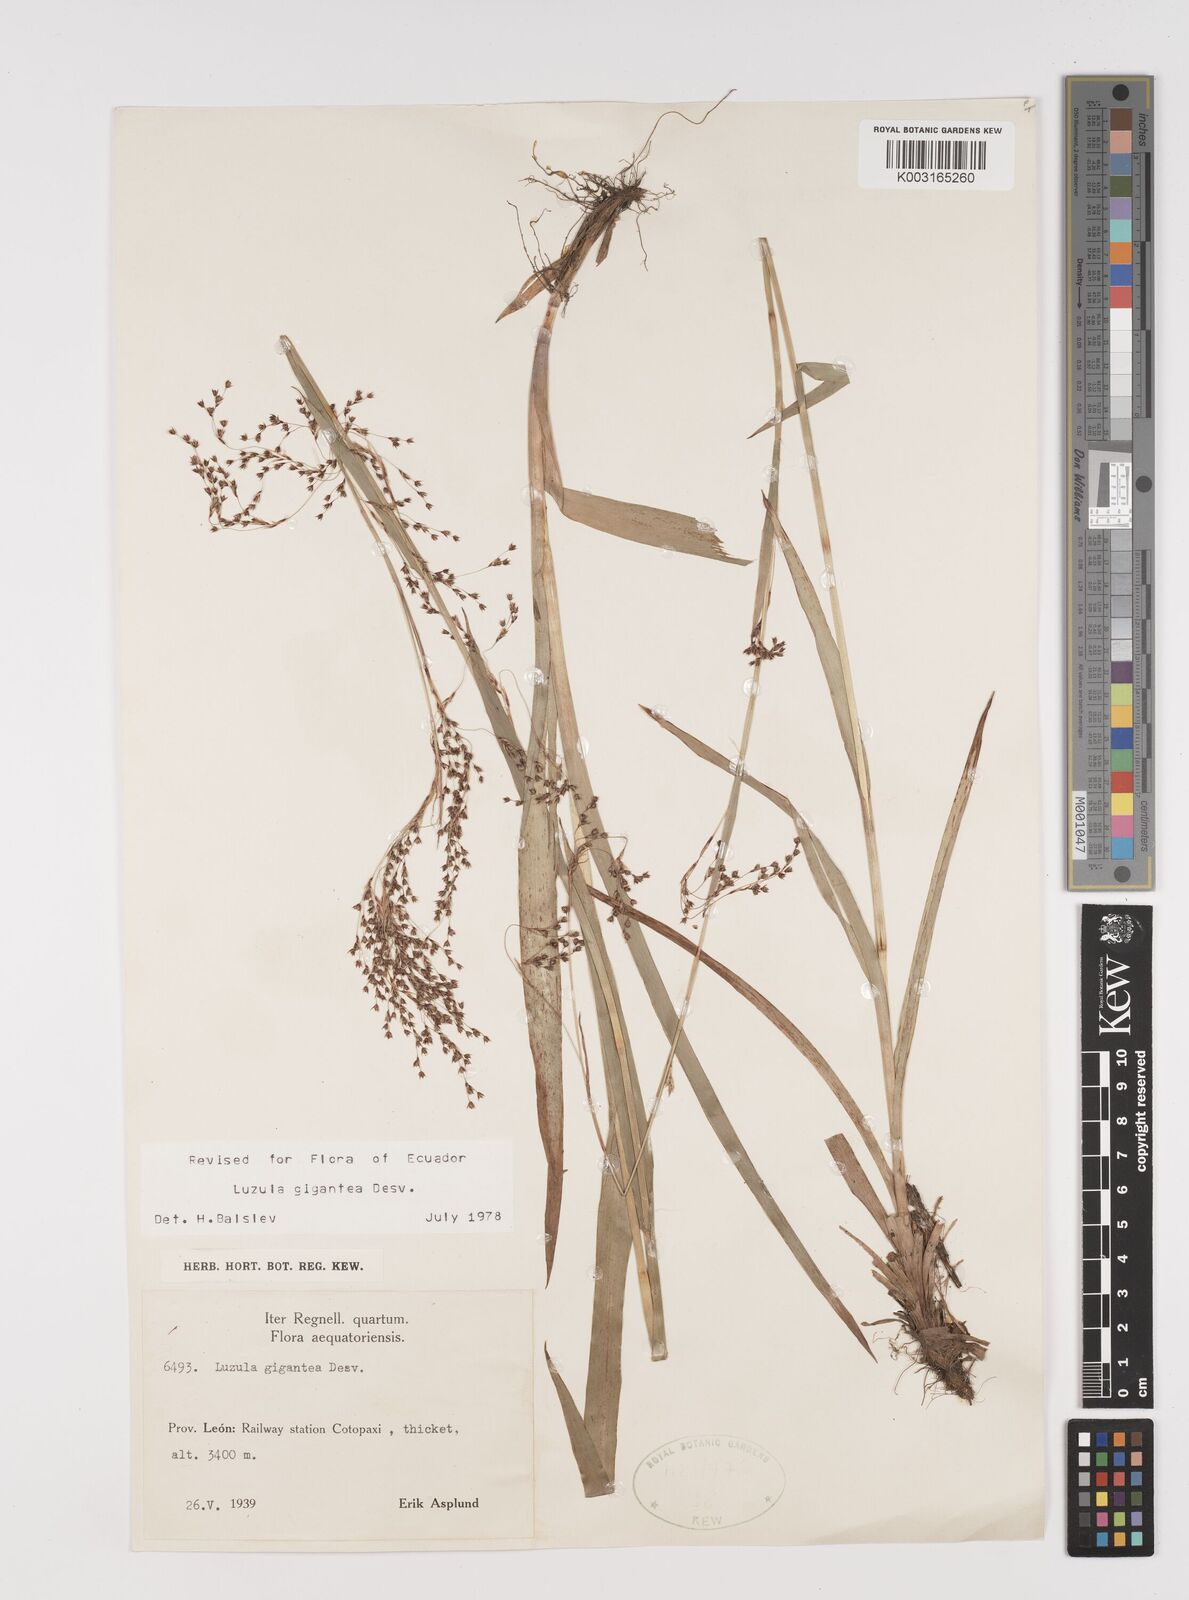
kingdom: Plantae
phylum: Tracheophyta
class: Liliopsida
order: Poales
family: Juncaceae
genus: Luzula
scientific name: Luzula gigantea
